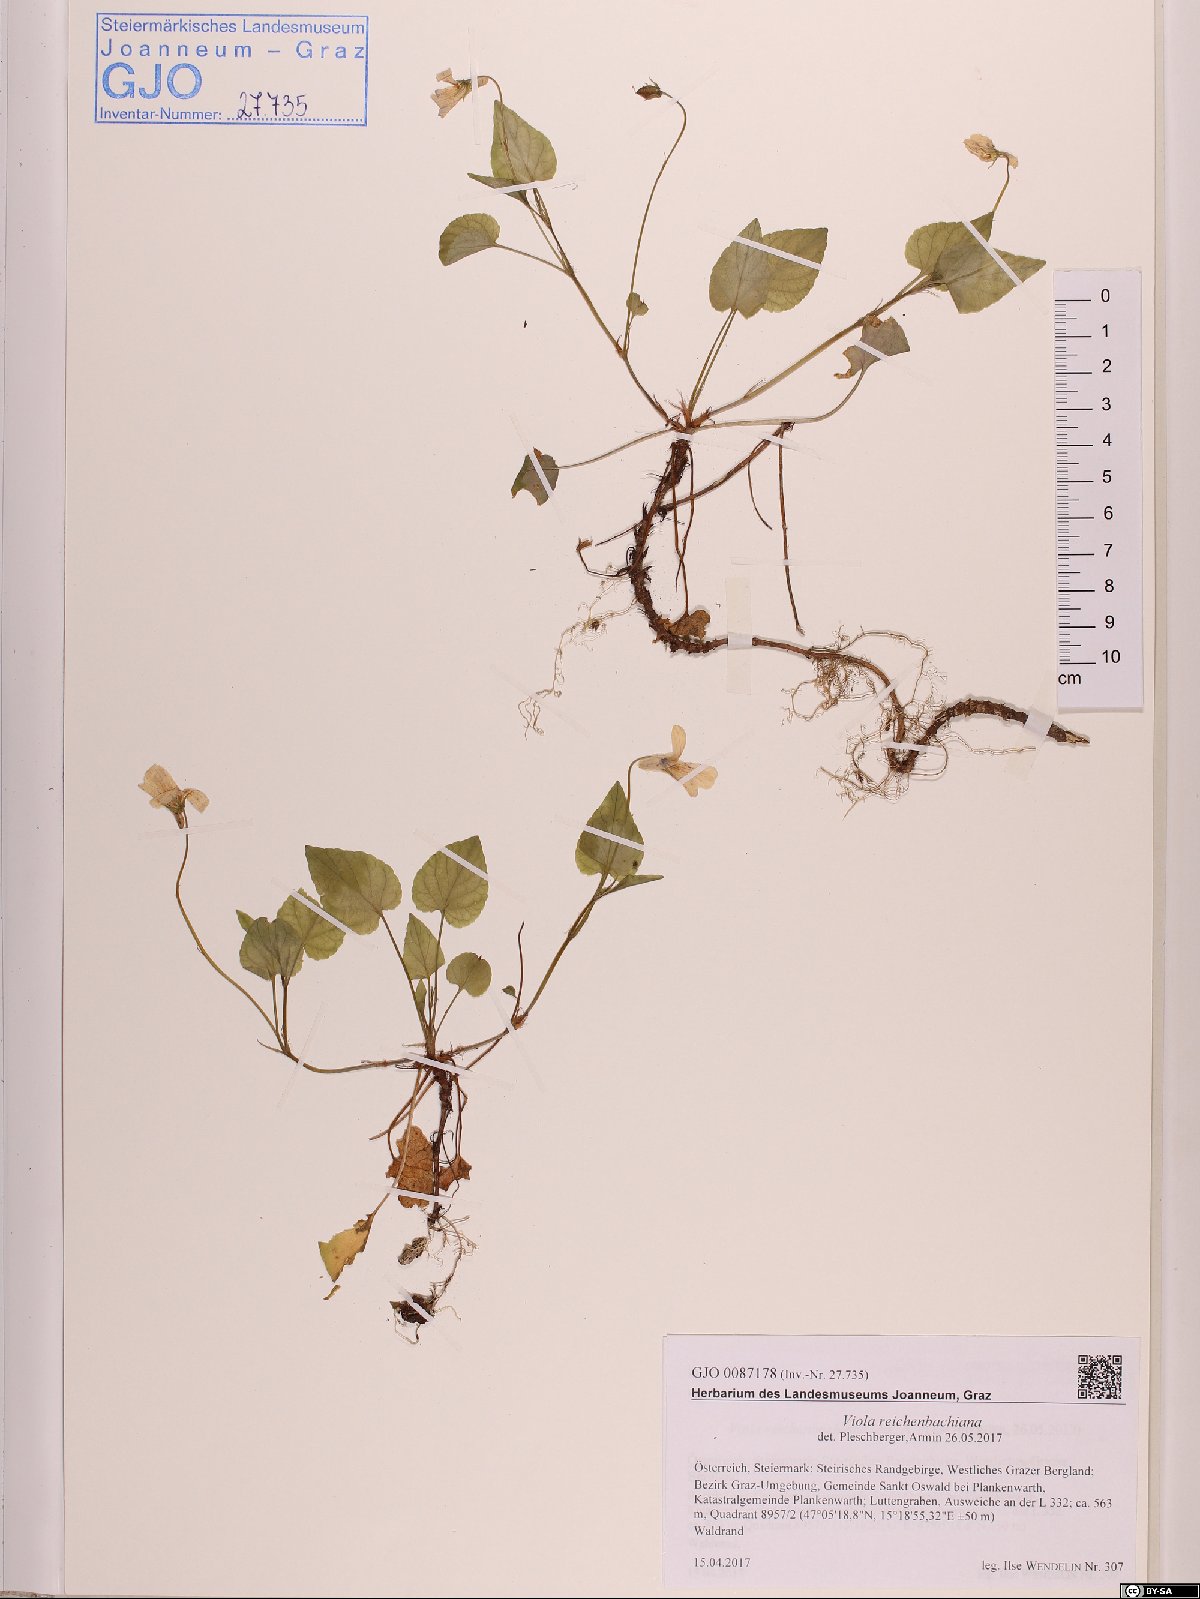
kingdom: Plantae
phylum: Tracheophyta
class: Magnoliopsida
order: Malpighiales
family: Violaceae
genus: Viola
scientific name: Viola reichenbachiana
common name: Early dog-violet
